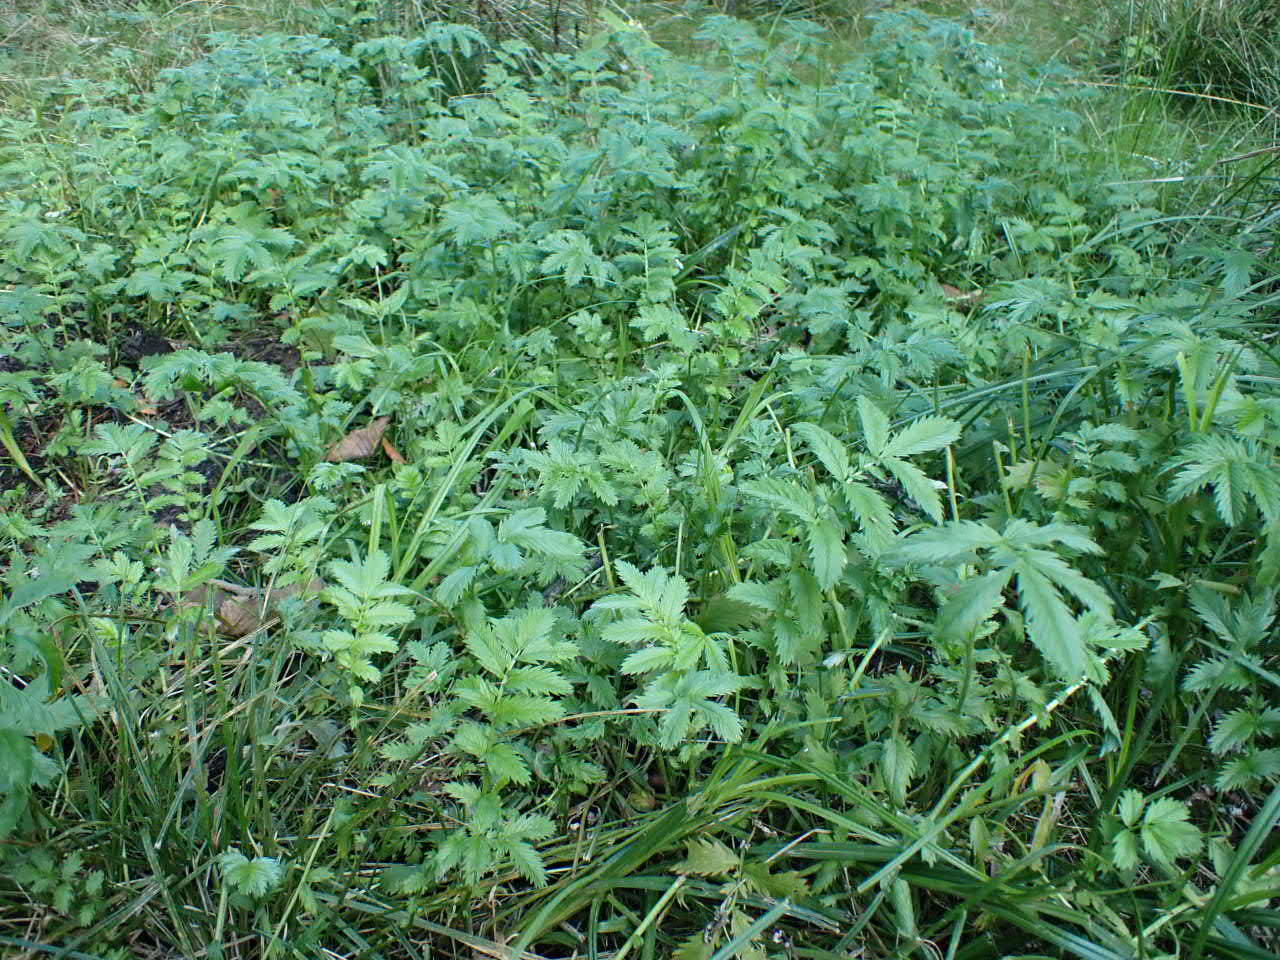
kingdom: Plantae
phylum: Tracheophyta
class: Magnoliopsida
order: Rosales
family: Rosaceae
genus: Argentina
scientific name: Argentina anserina
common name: Gåsepotentil
